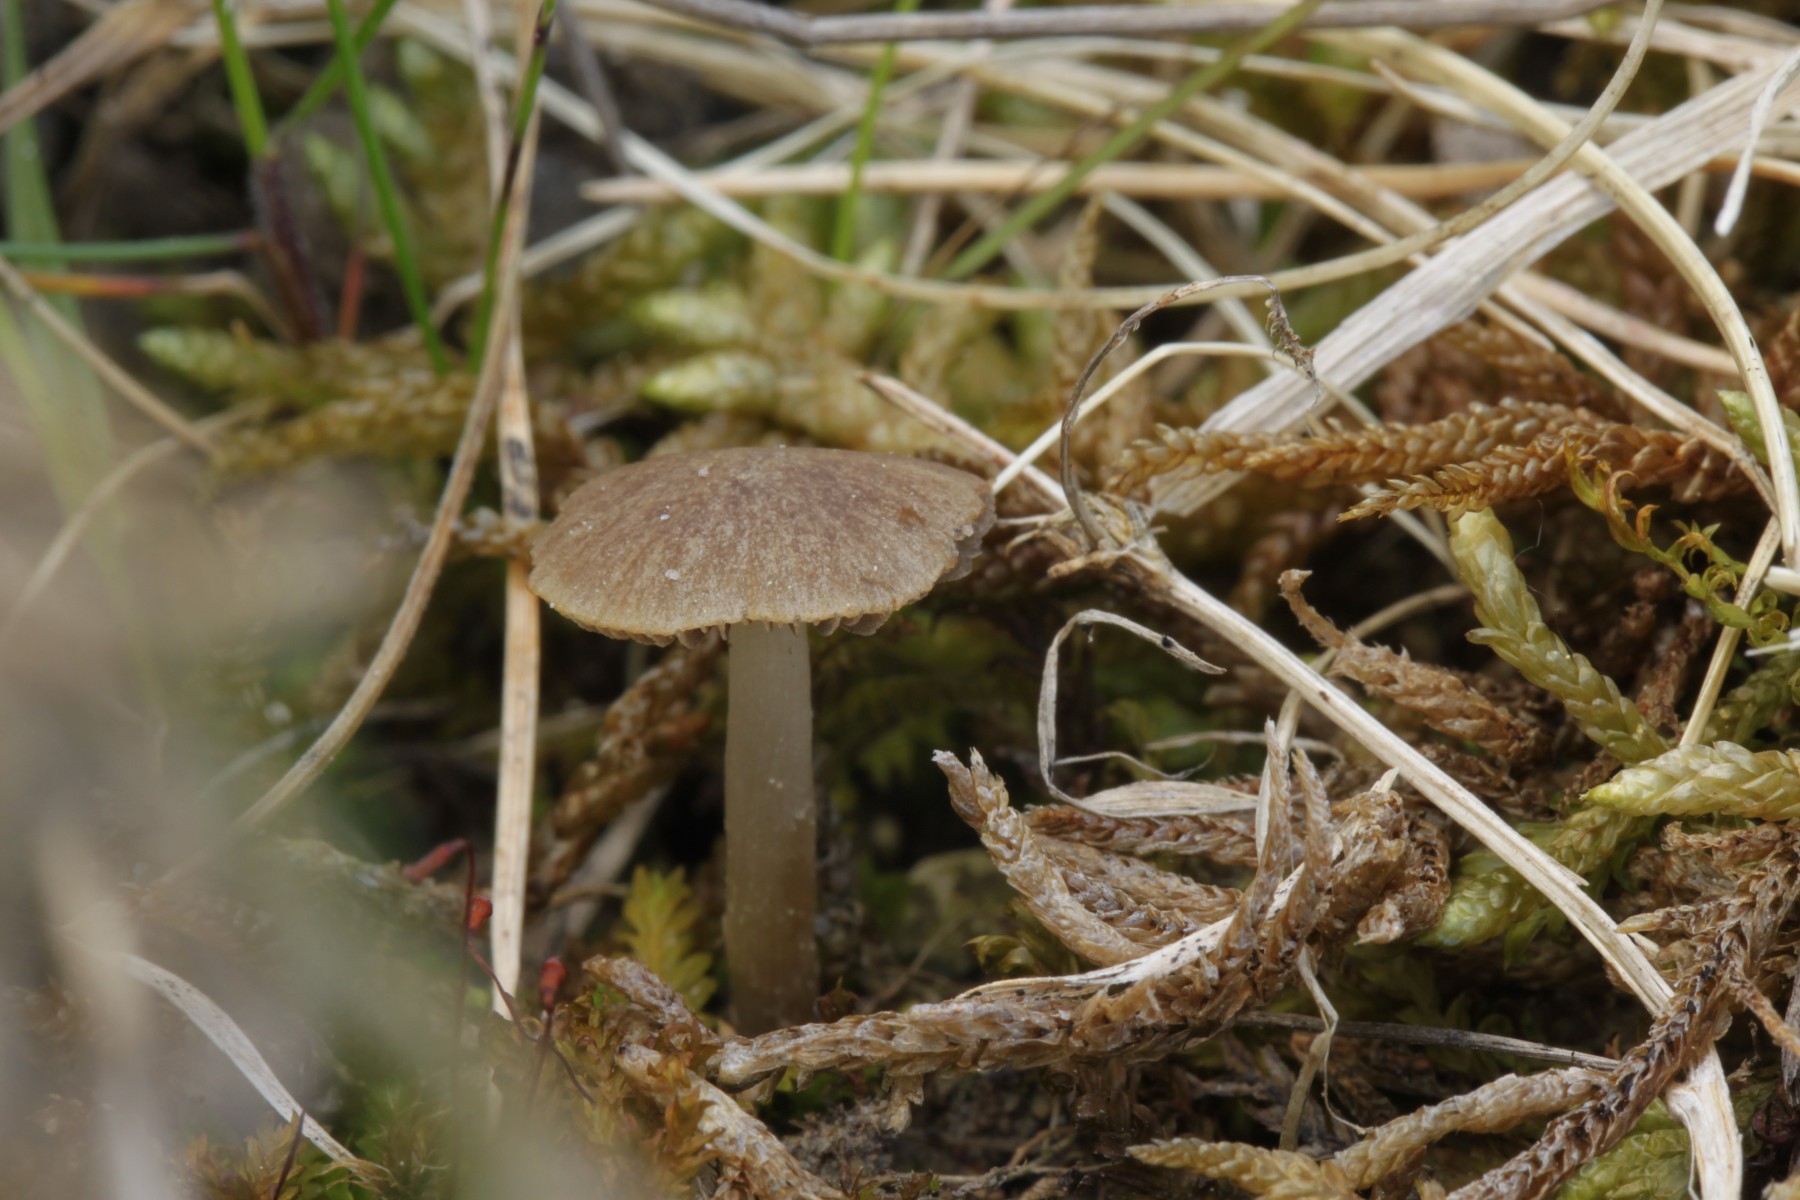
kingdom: Fungi
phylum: Basidiomycota
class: Agaricomycetes
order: Agaricales
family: Psathyrellaceae
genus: Psathyrella
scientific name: Psathyrella panaeoloides
